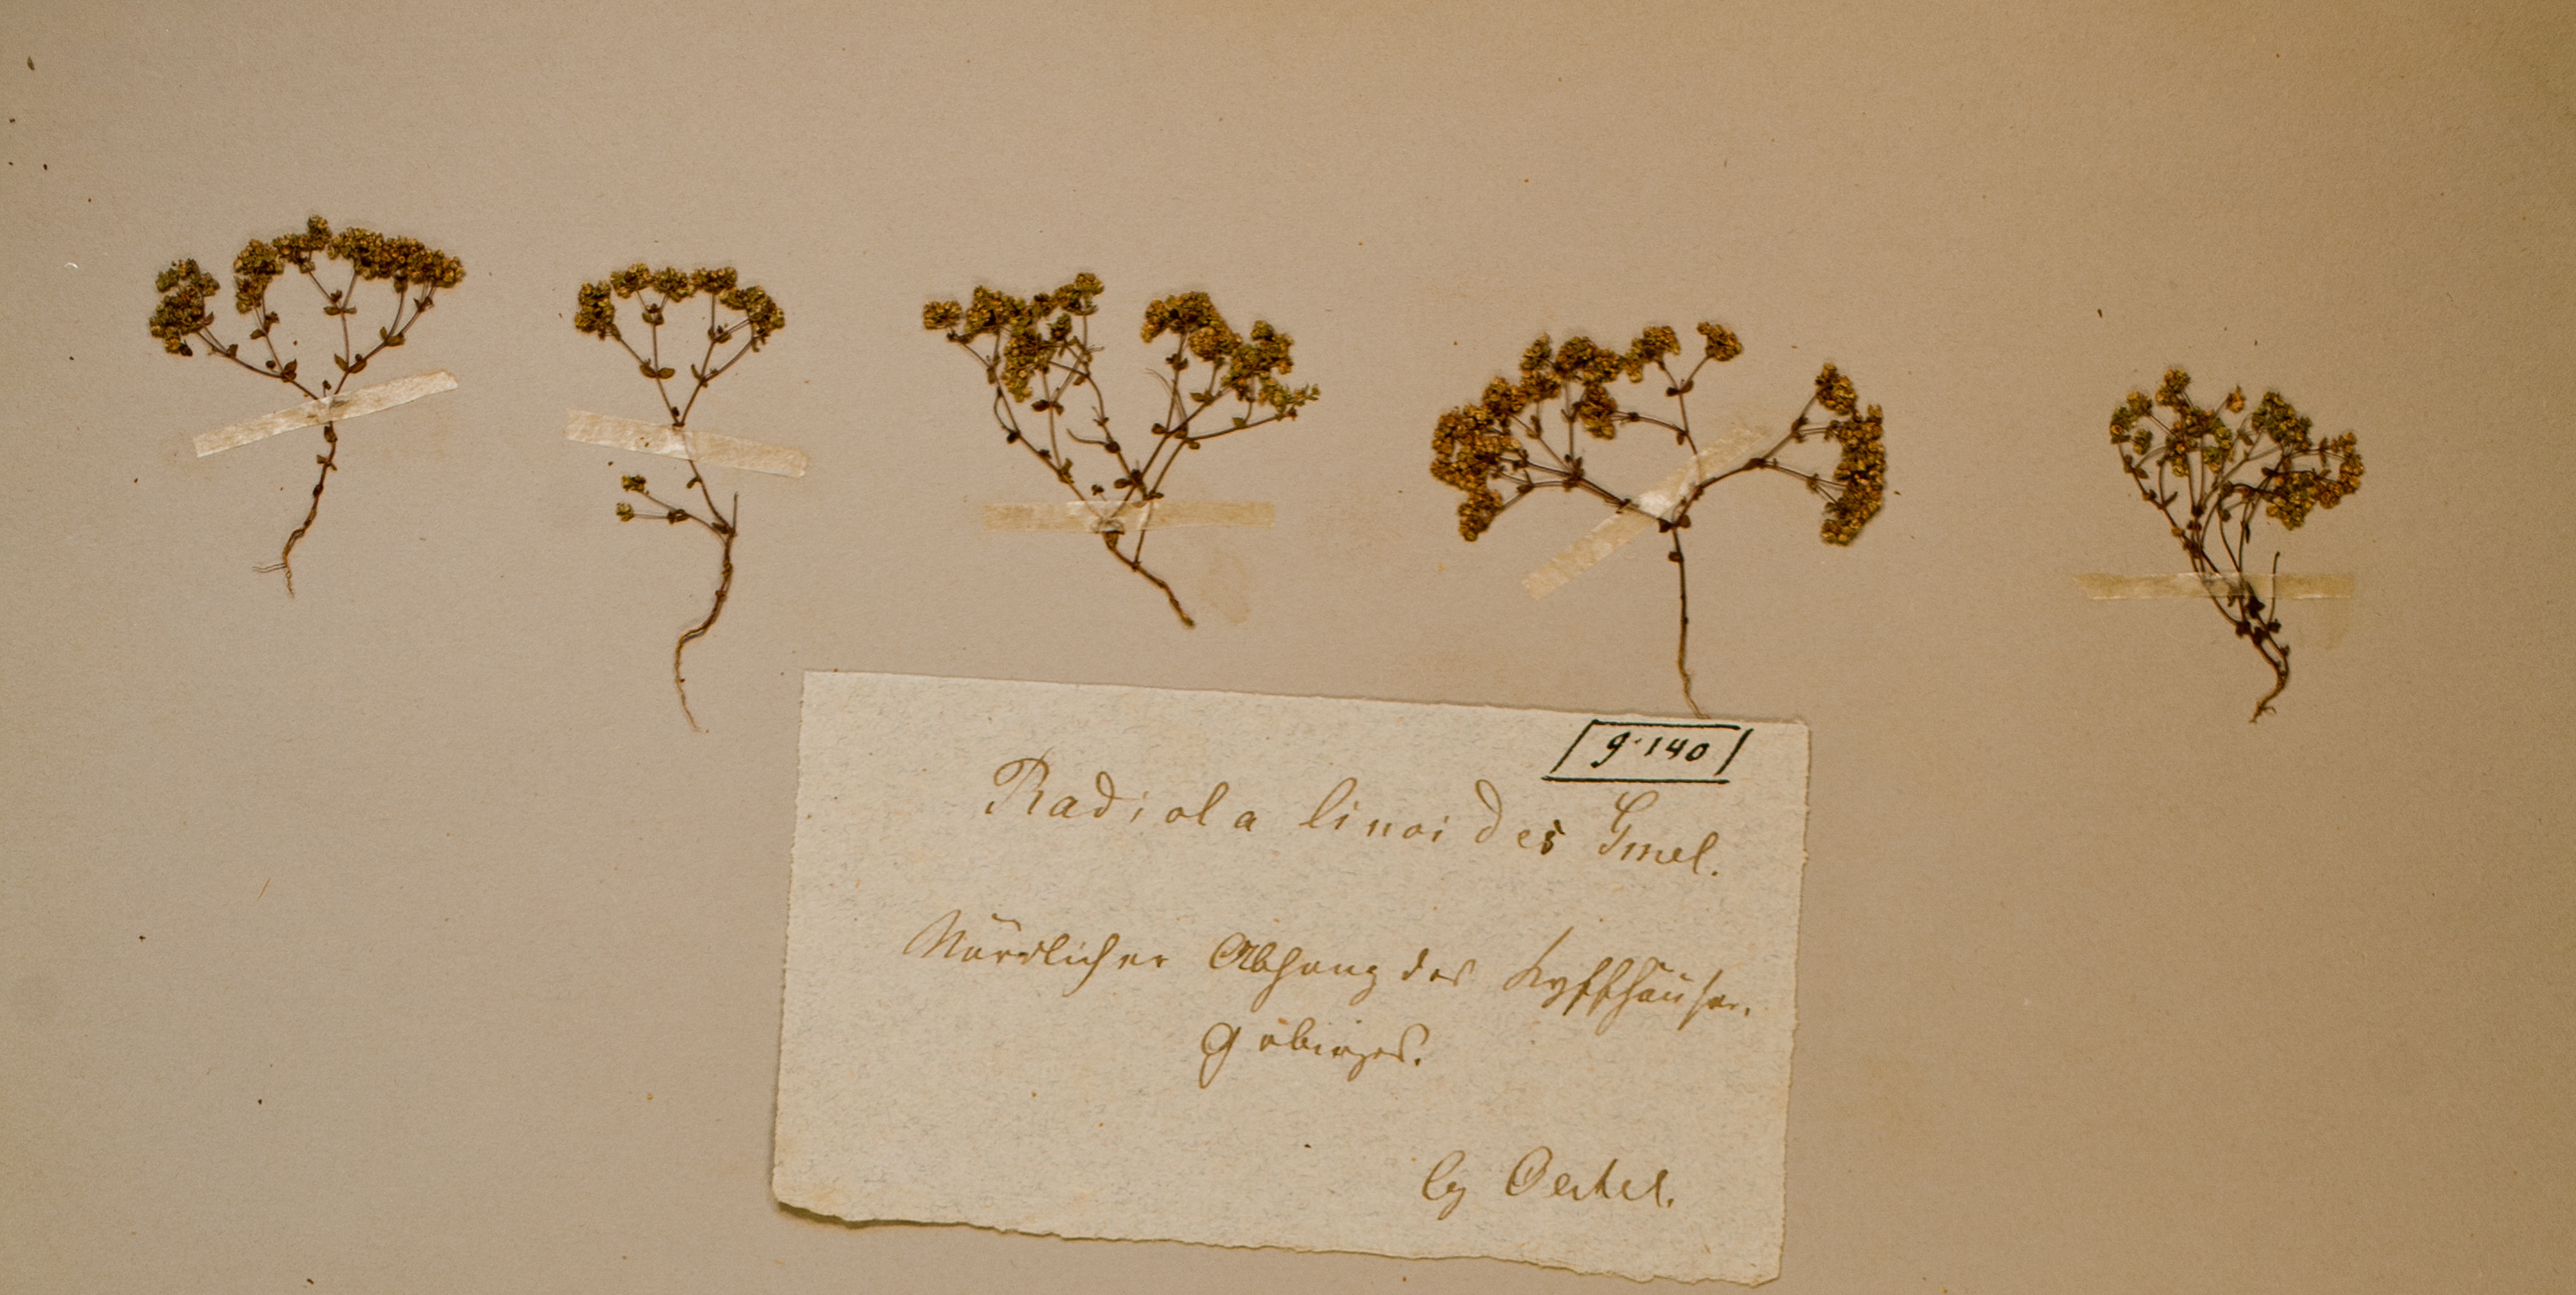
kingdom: Plantae
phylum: Tracheophyta
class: Magnoliopsida
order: Malpighiales
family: Linaceae
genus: Radiola
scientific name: Radiola linoides
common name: Allseed
